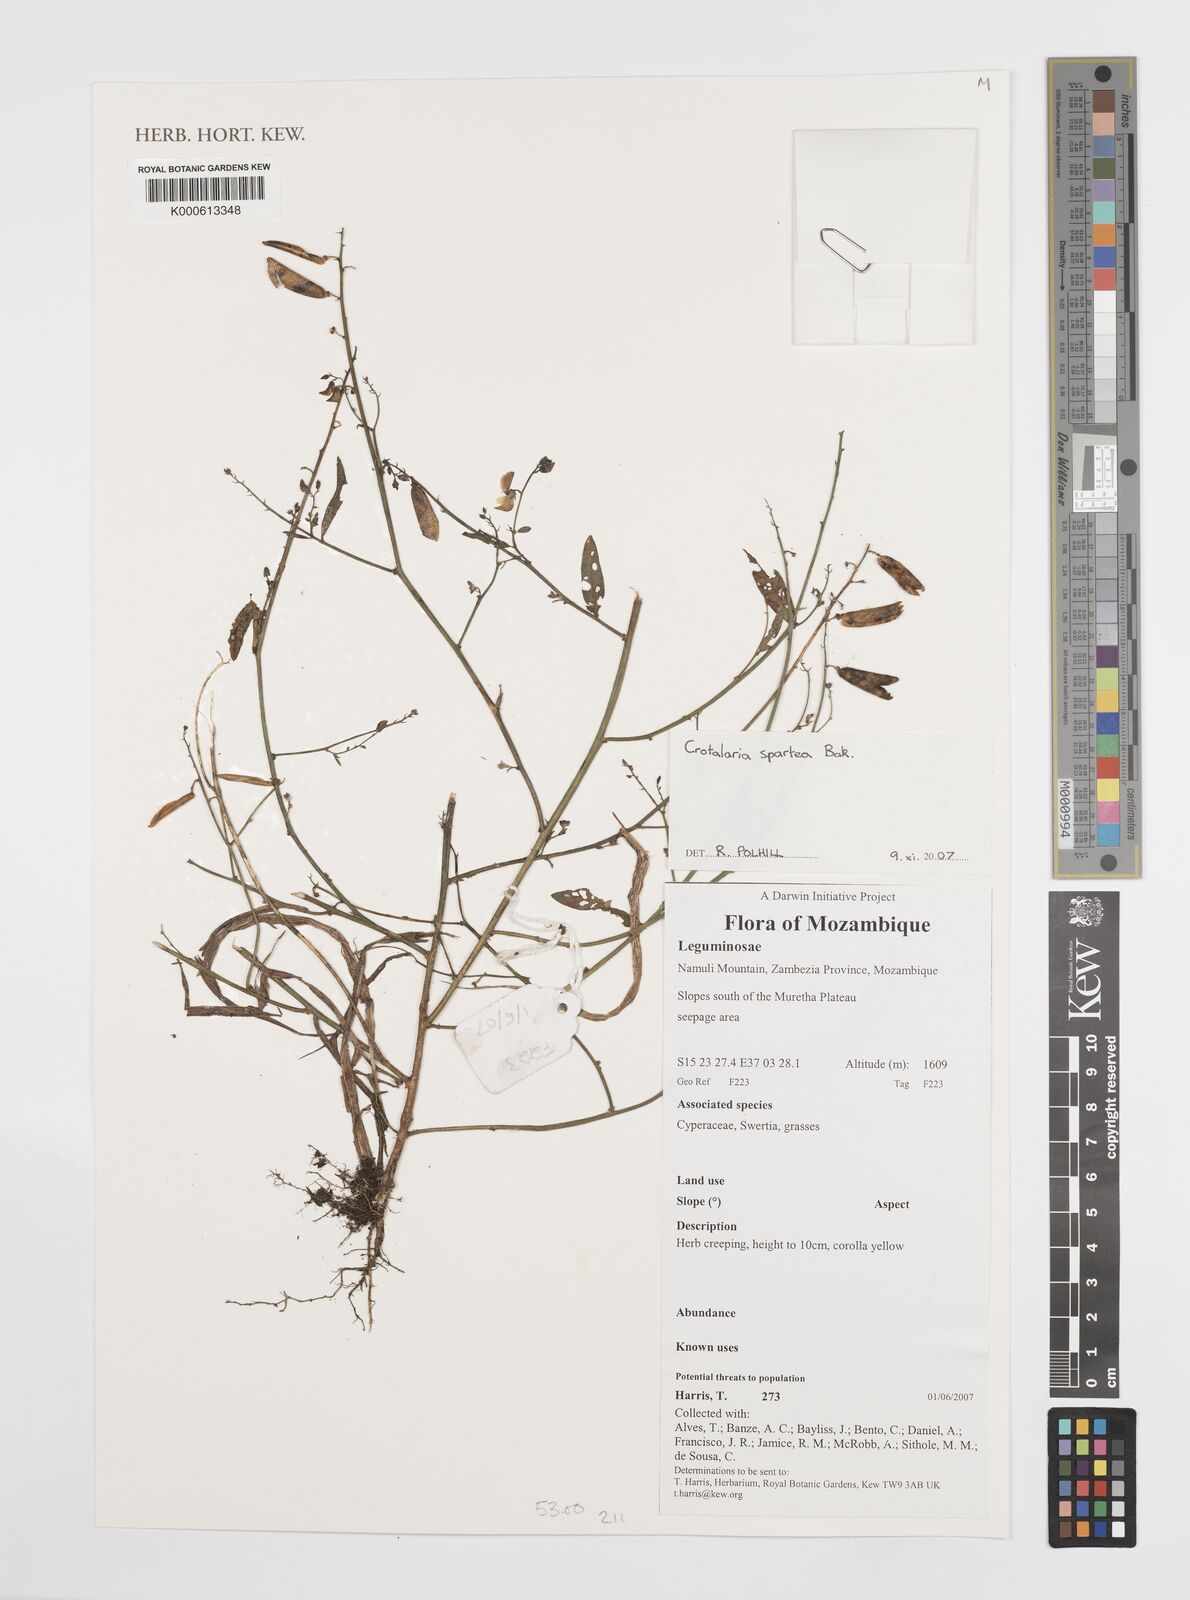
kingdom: Plantae
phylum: Tracheophyta
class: Magnoliopsida
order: Fabales
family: Fabaceae
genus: Crotalaria
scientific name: Crotalaria spartea
